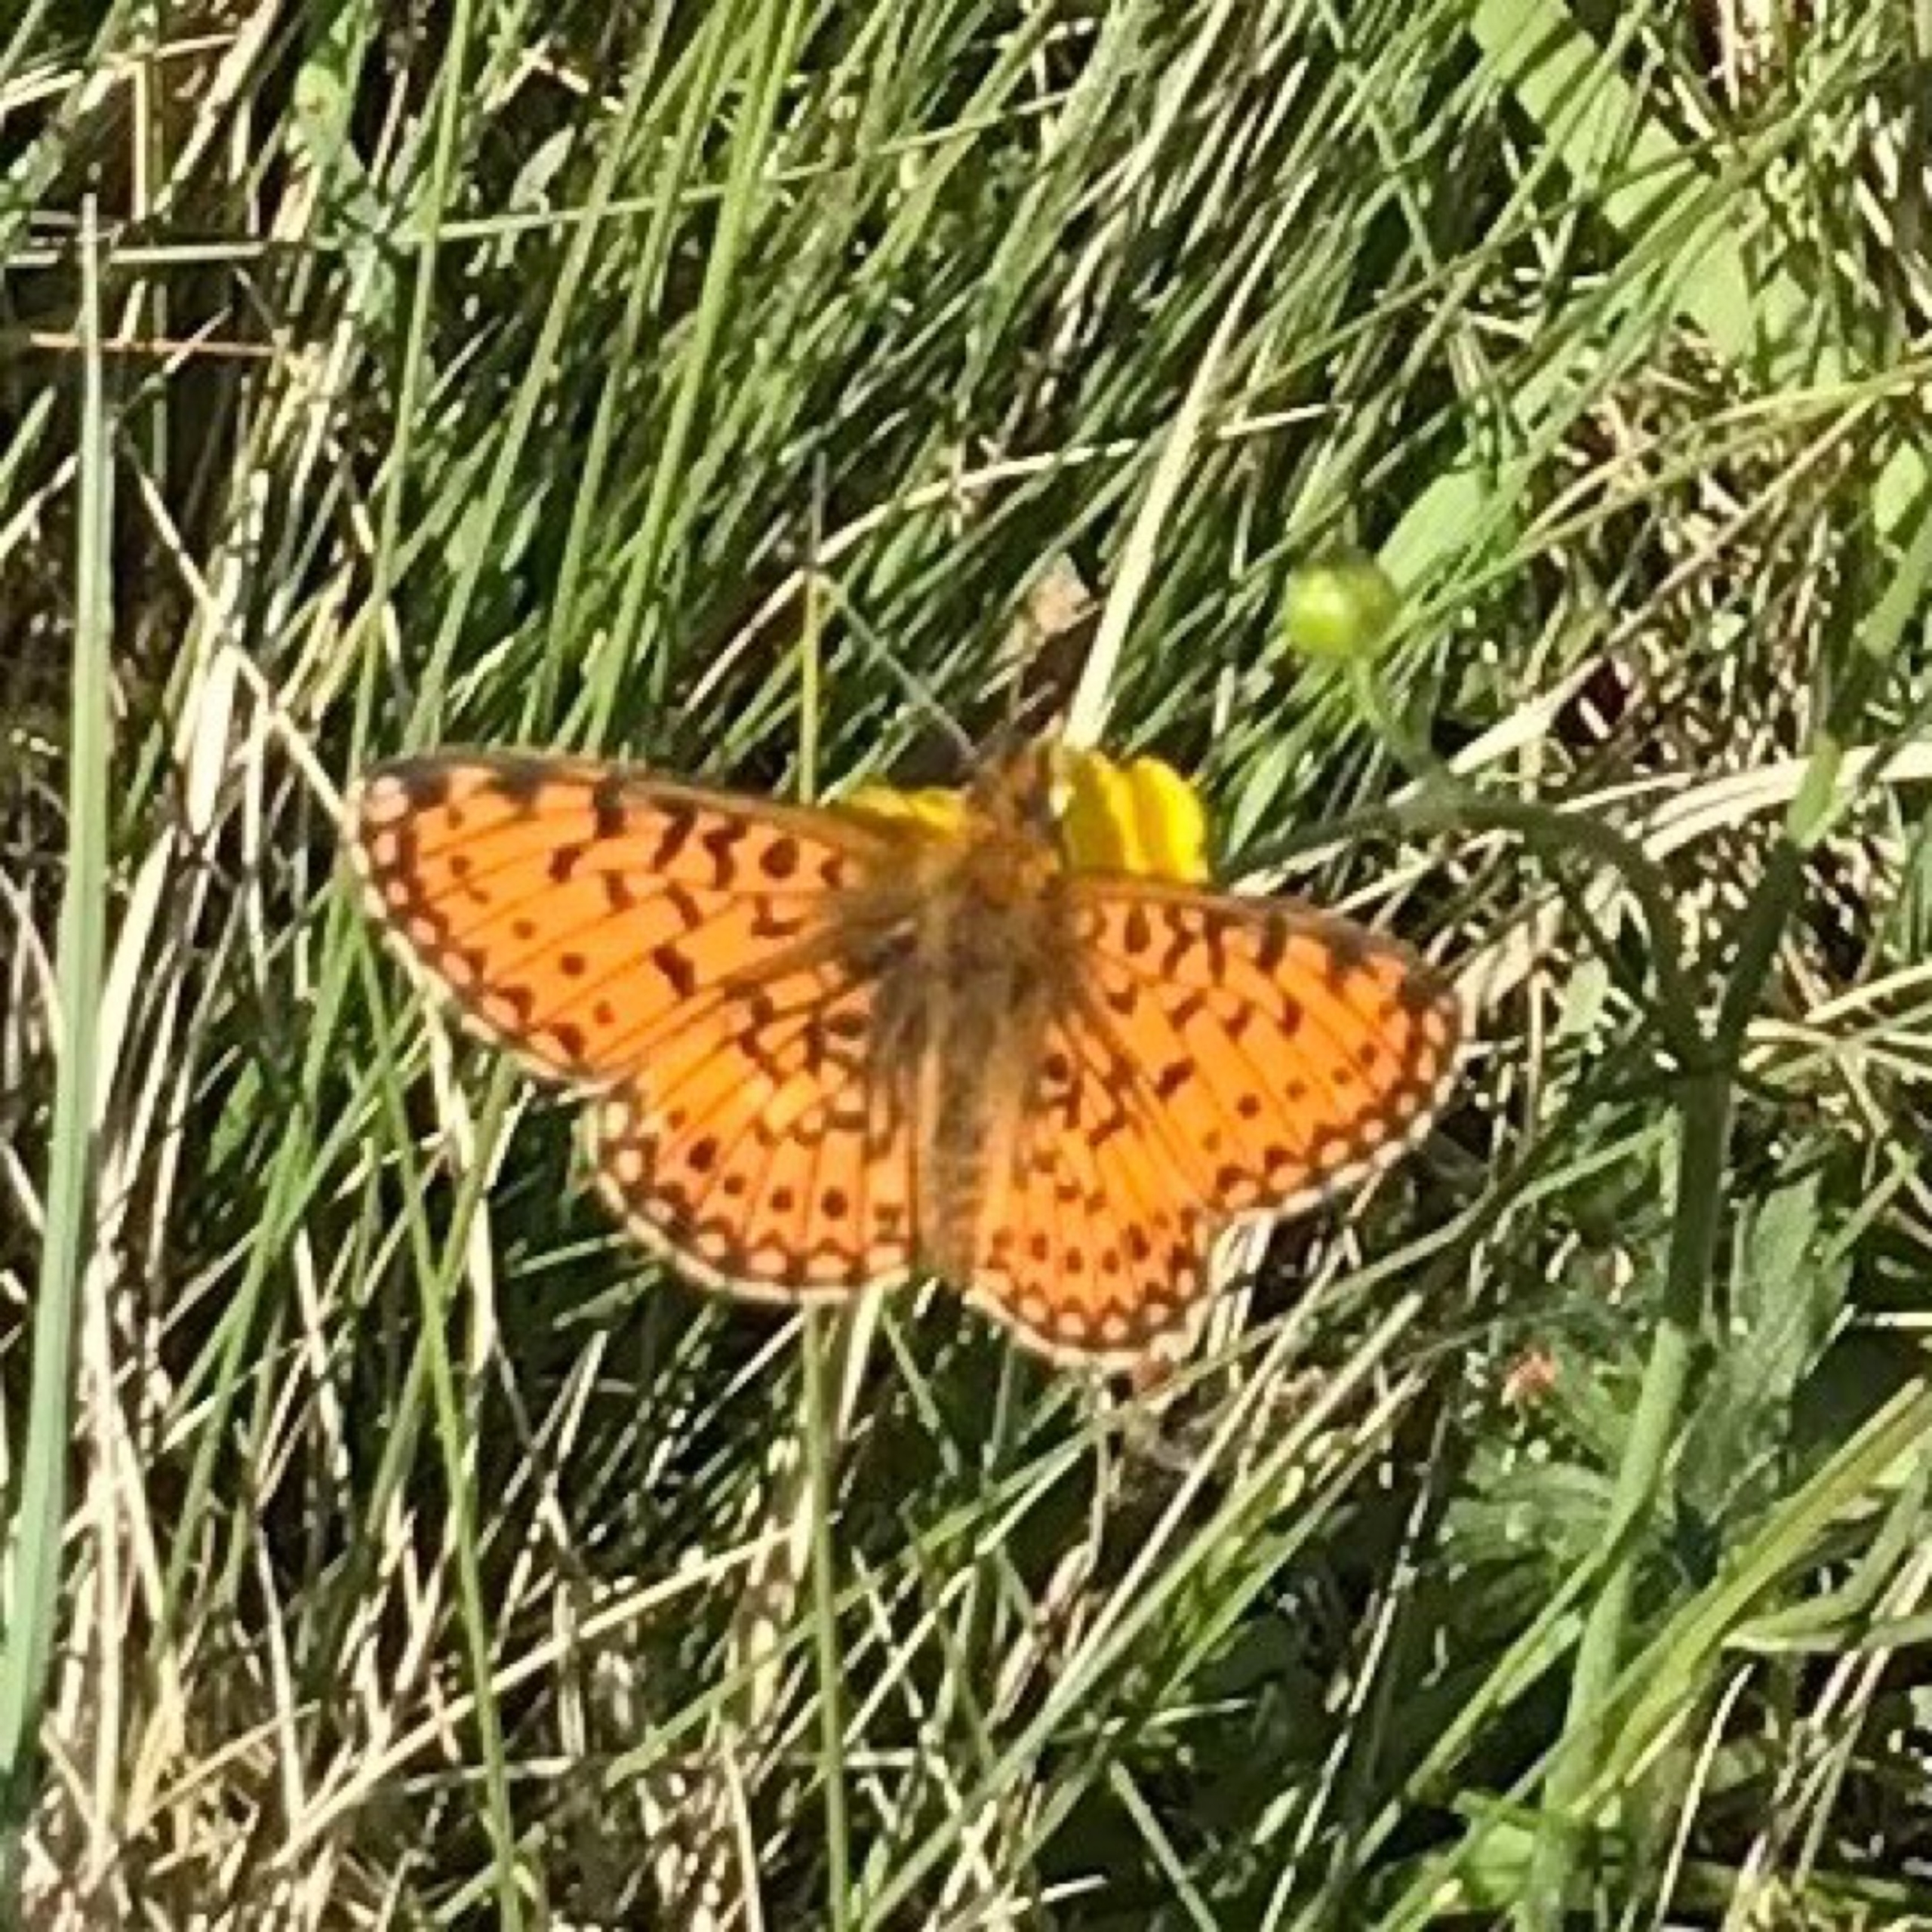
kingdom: Animalia
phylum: Arthropoda
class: Insecta
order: Lepidoptera
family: Nymphalidae
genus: Boloria
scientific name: Boloria selene
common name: Brunlig perlemorsommerfugl
